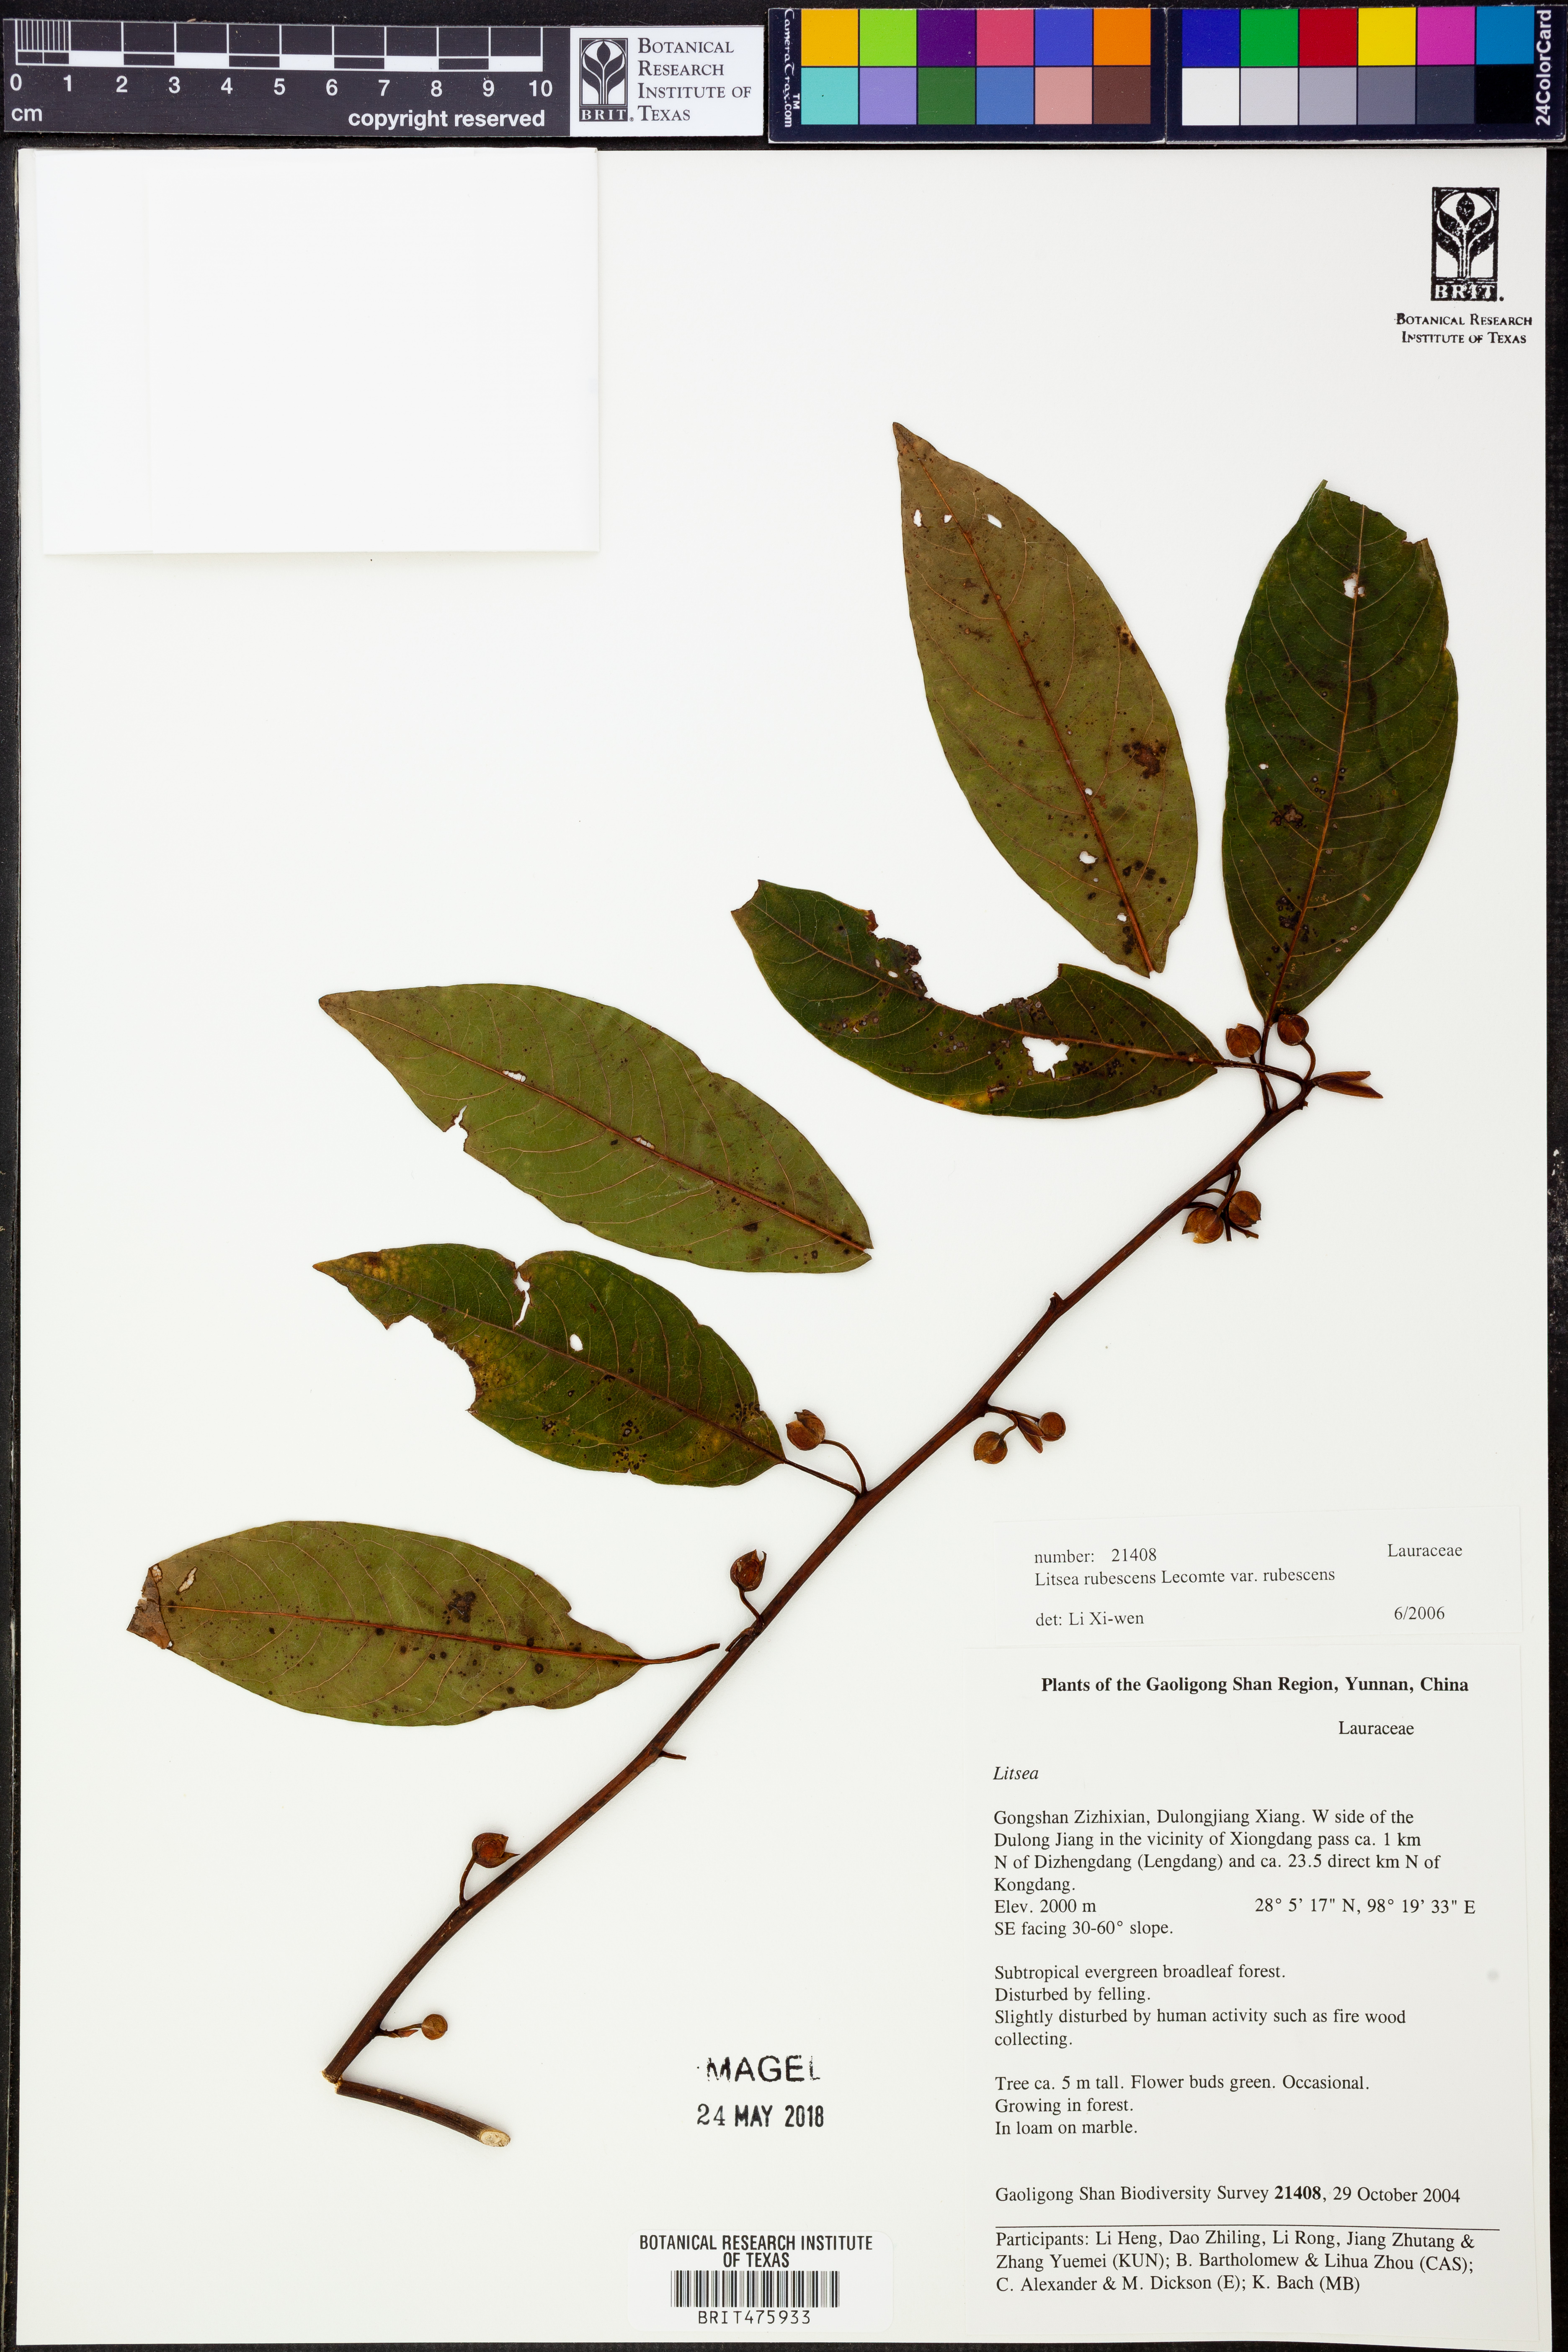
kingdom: Plantae
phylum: Tracheophyta
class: Magnoliopsida
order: Laurales
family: Lauraceae
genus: Litsea
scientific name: Litsea rubescens
